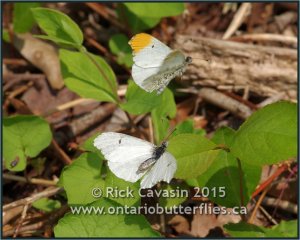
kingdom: Animalia
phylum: Arthropoda
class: Insecta
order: Lepidoptera
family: Pieridae
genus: Anthocharis
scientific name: Anthocharis midea
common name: Falcate Orangetip
